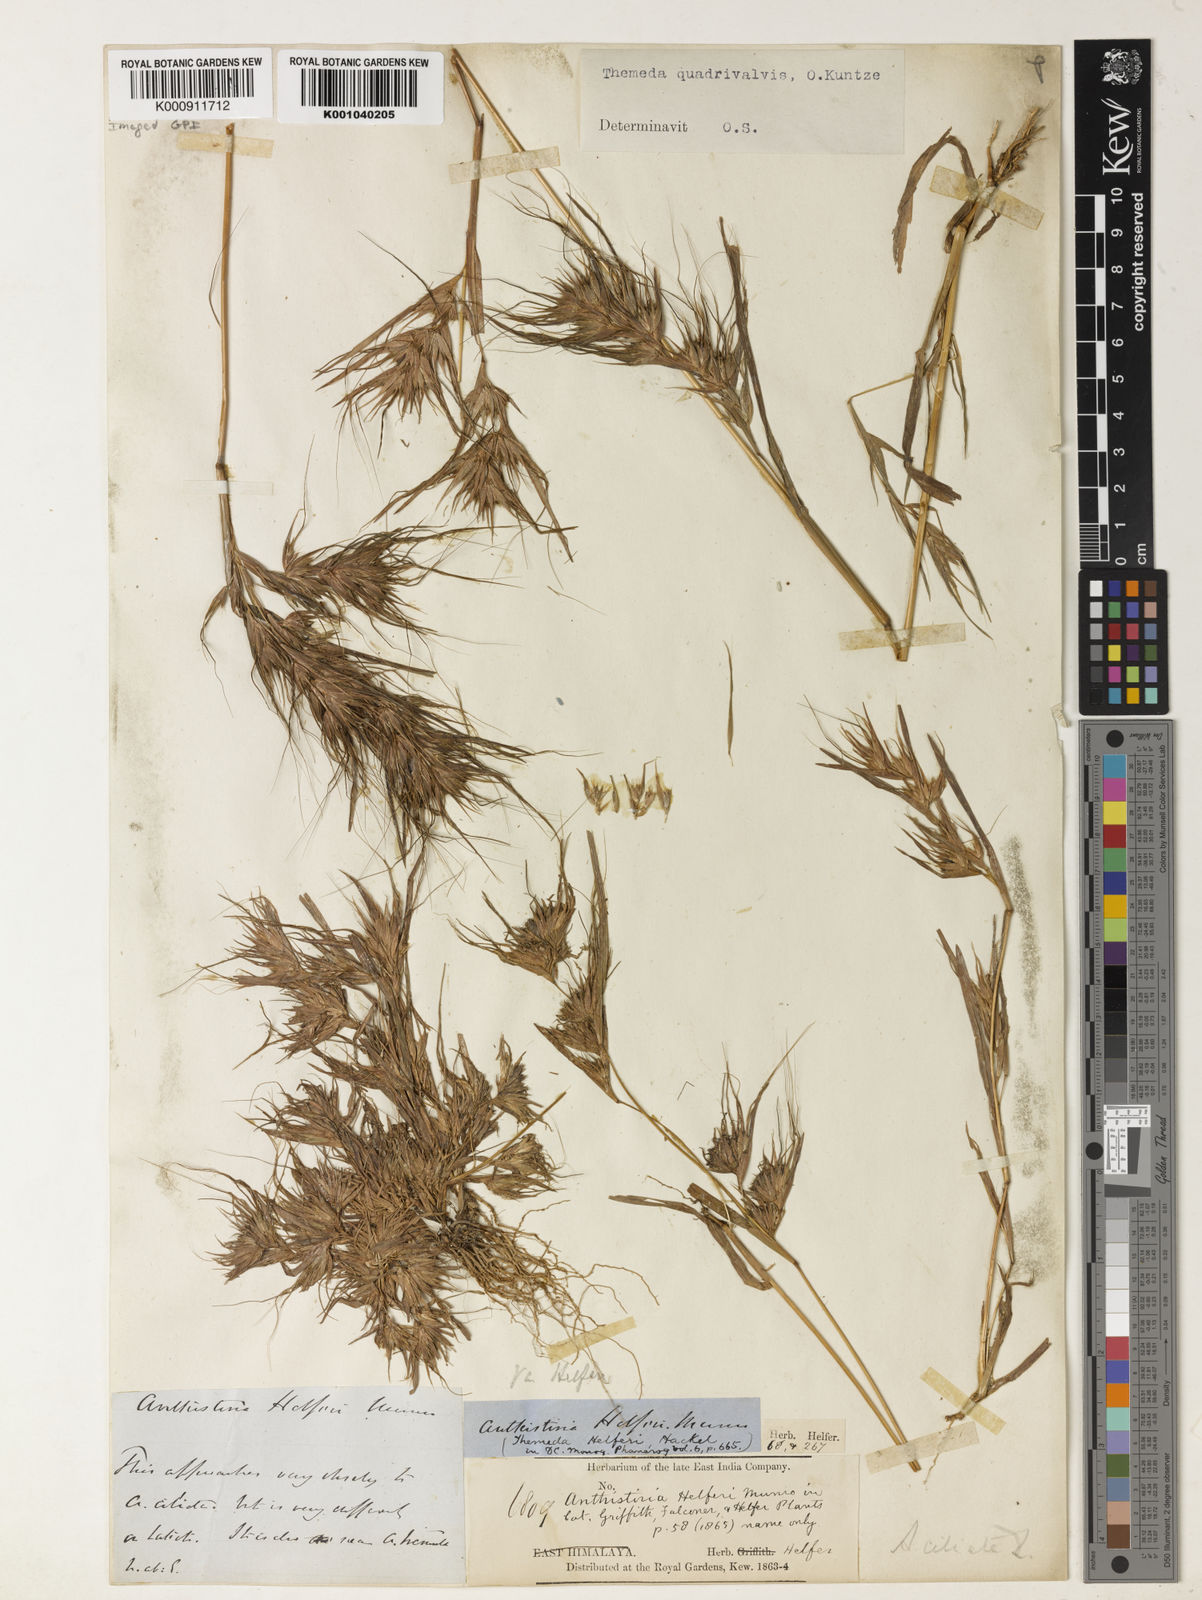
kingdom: Plantae
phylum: Tracheophyta
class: Liliopsida
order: Poales
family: Poaceae
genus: Themeda
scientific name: Themeda helferi
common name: Kangaroo grass
